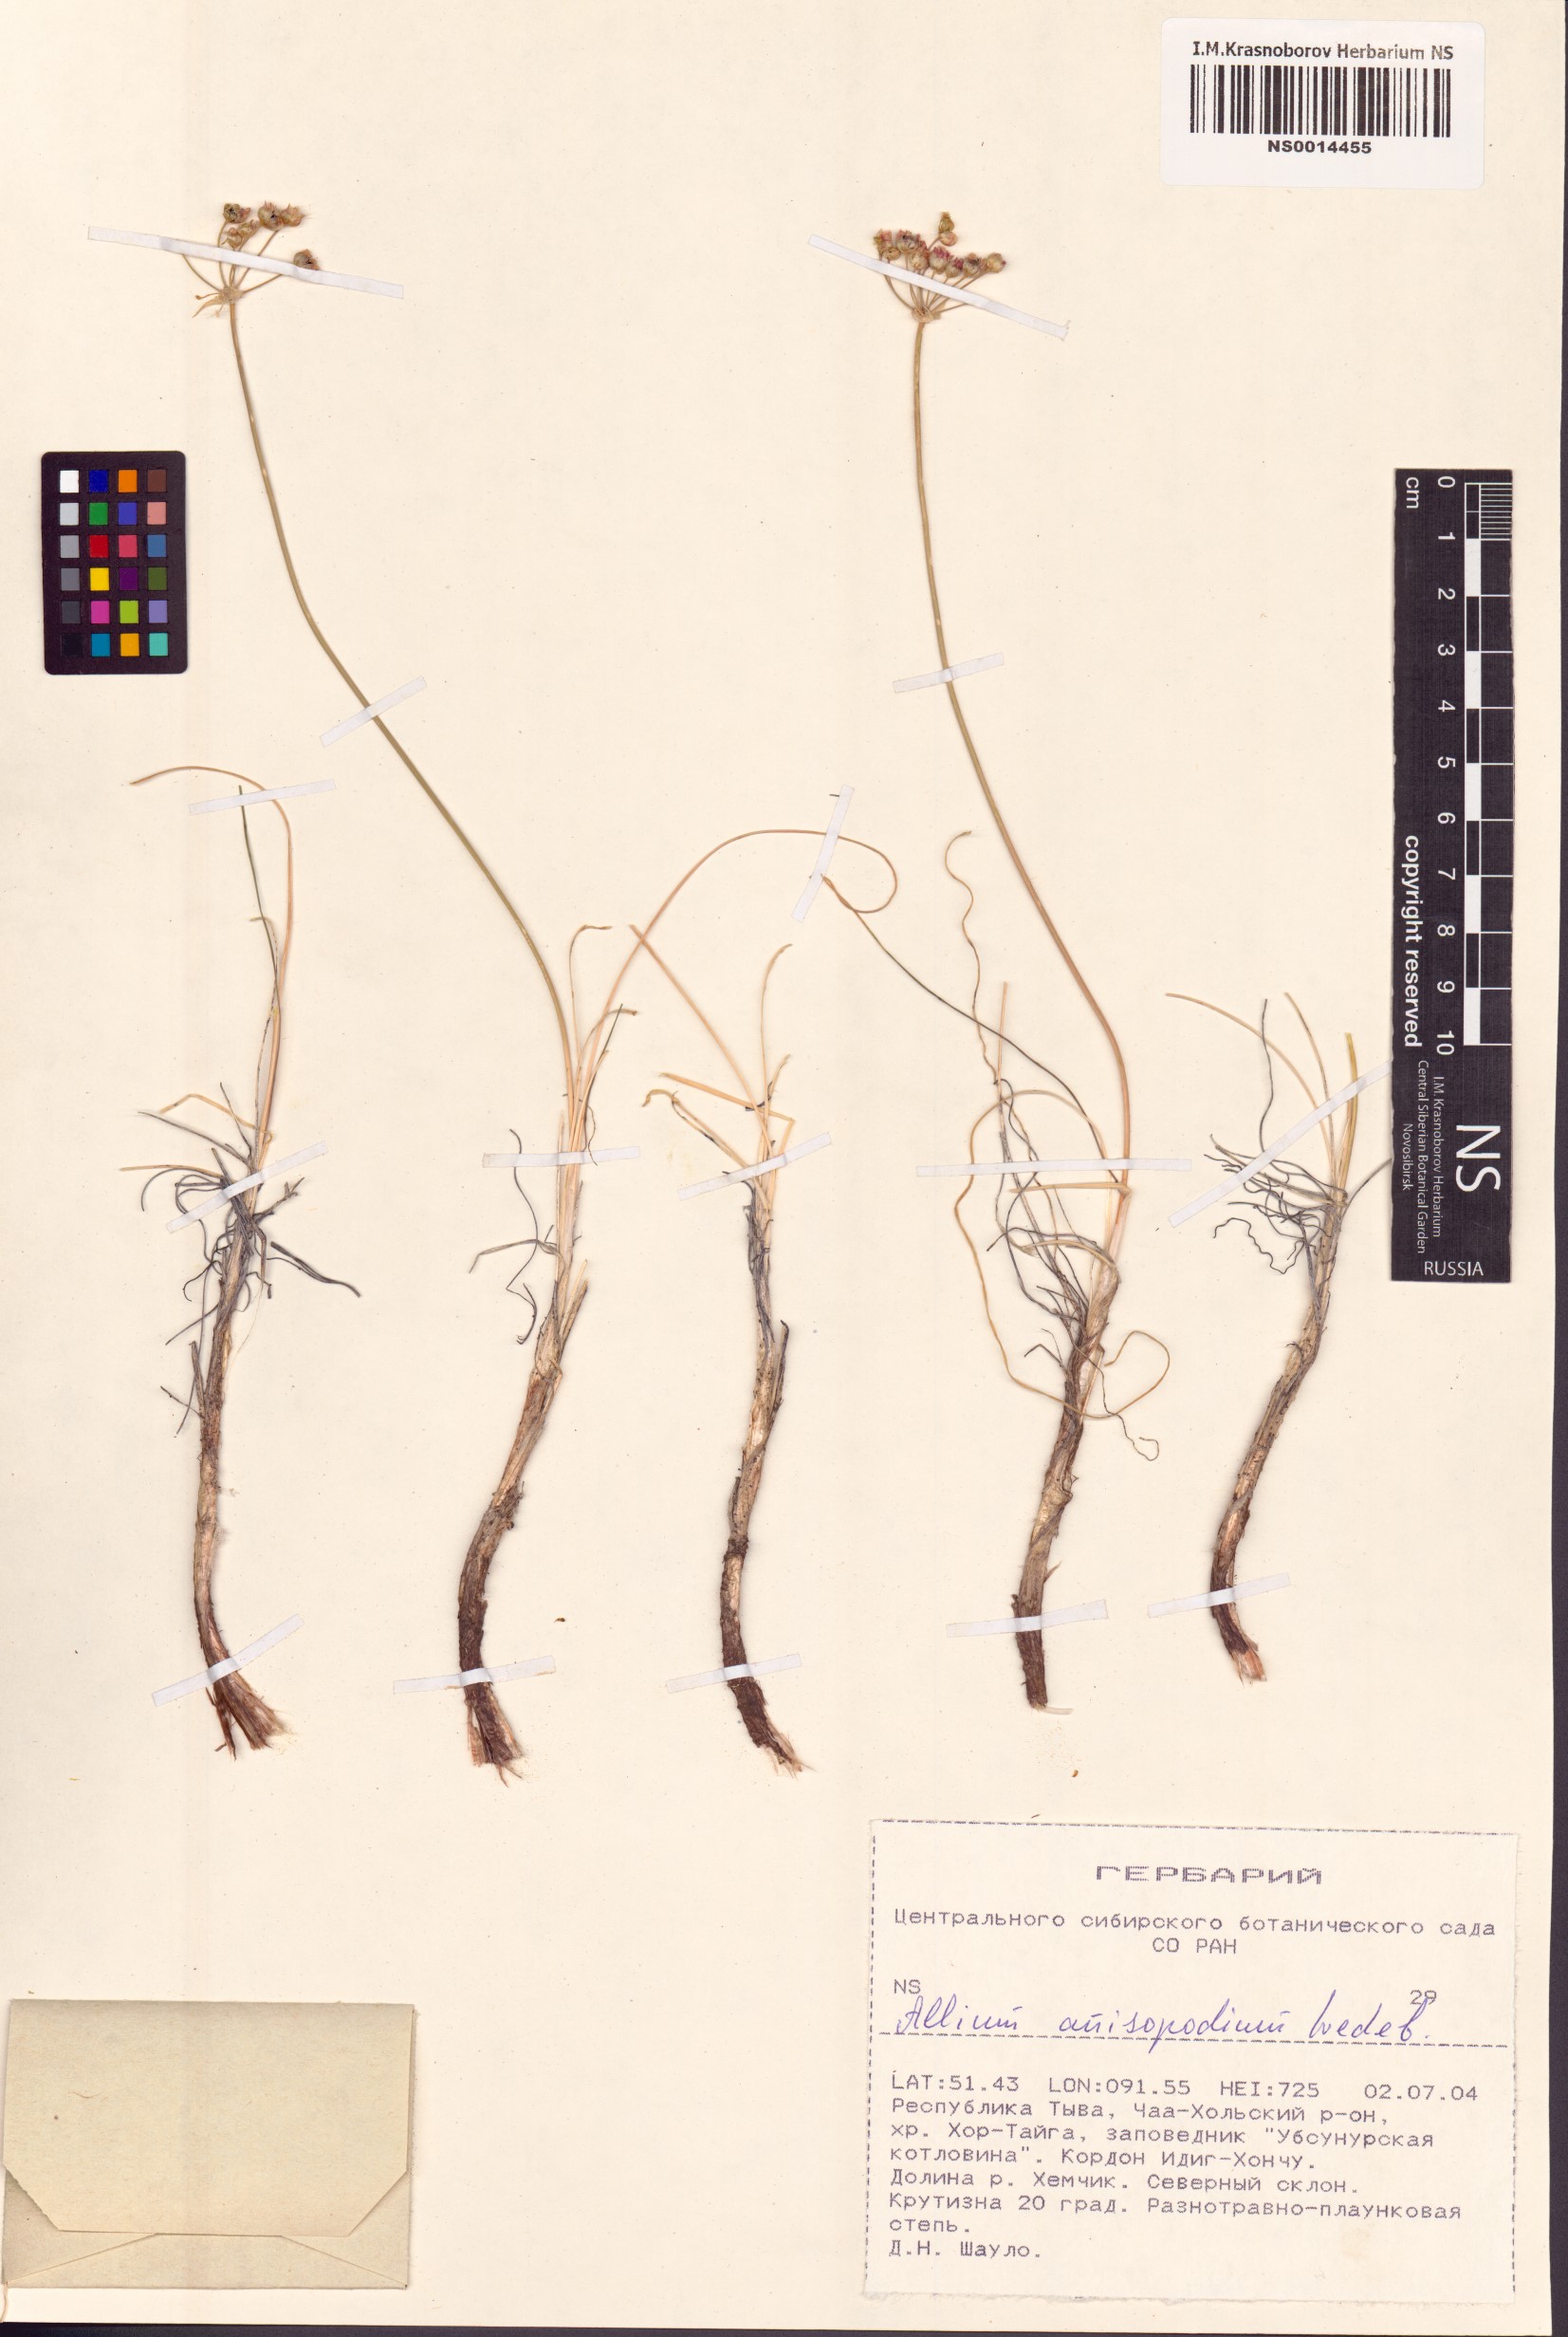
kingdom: Plantae
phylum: Tracheophyta
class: Liliopsida
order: Asparagales
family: Amaryllidaceae
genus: Allium
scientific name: Allium anisopodium
